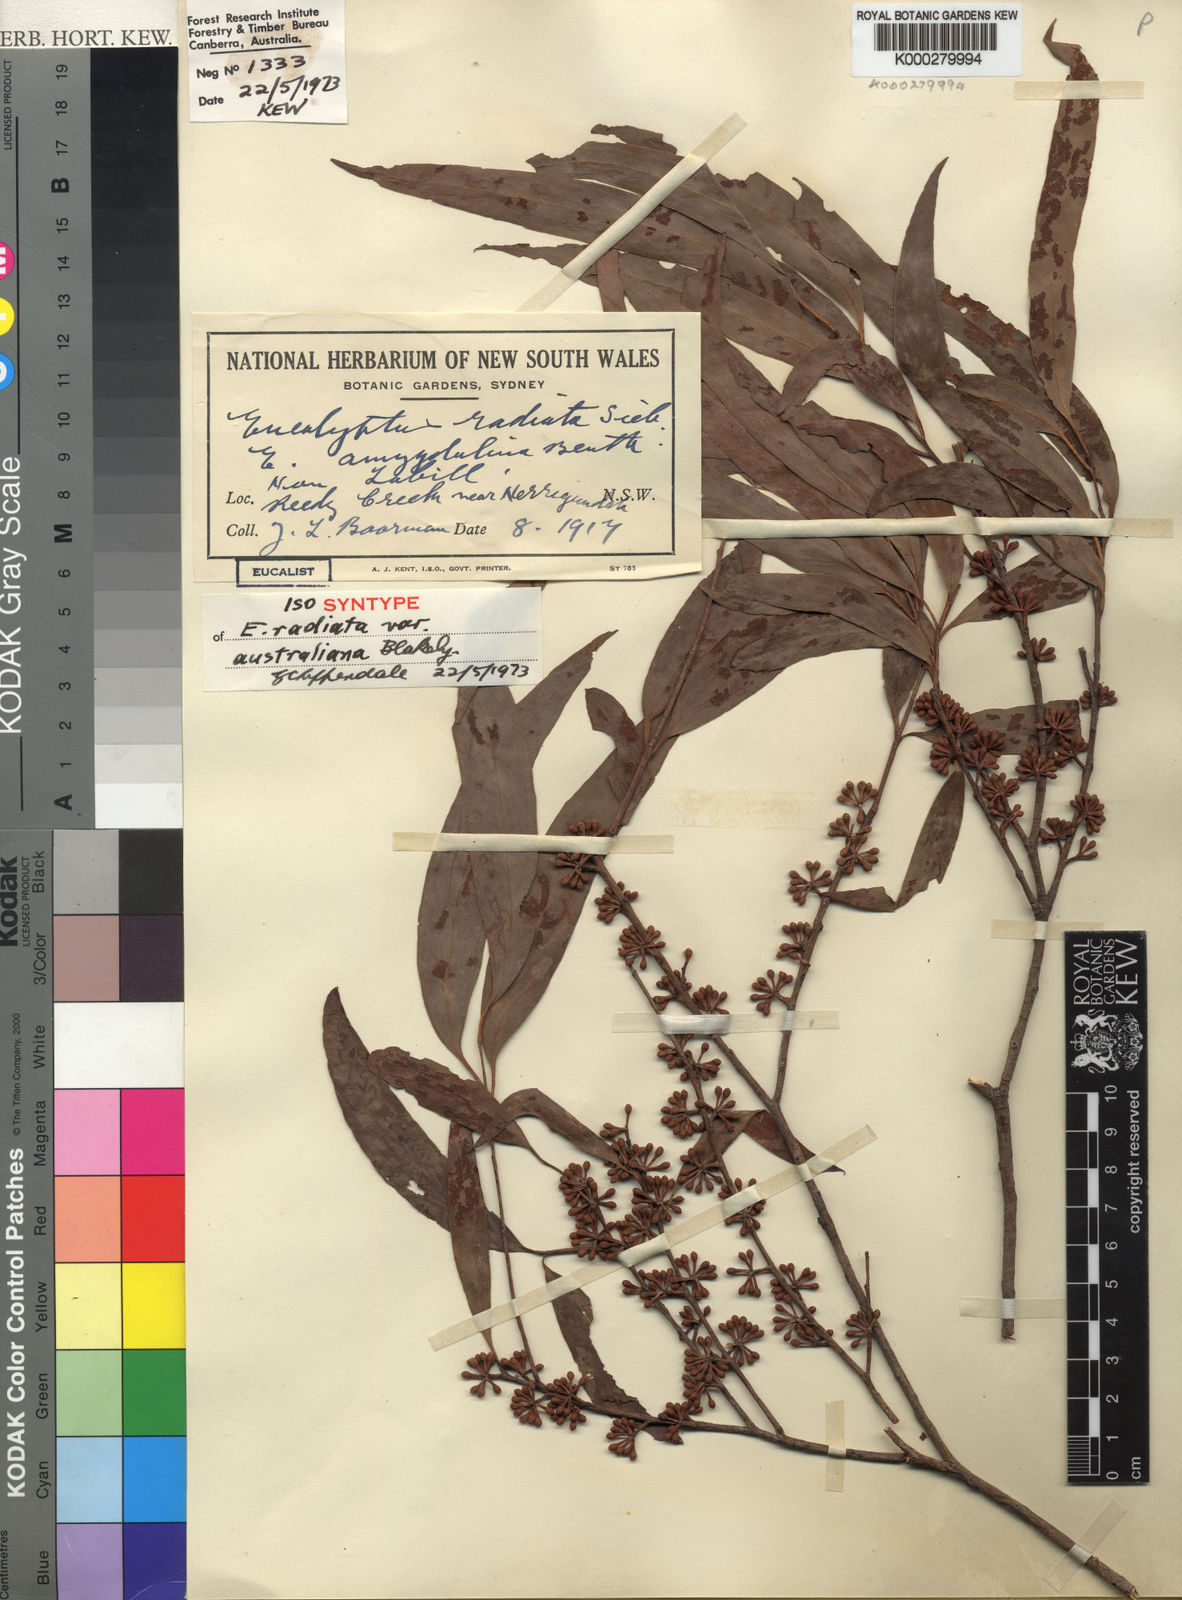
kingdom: Plantae
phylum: Tracheophyta
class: Magnoliopsida
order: Myrtales
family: Myrtaceae
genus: Eucalyptus
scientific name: Eucalyptus radiata
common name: Narrow-leaved-peppermint
